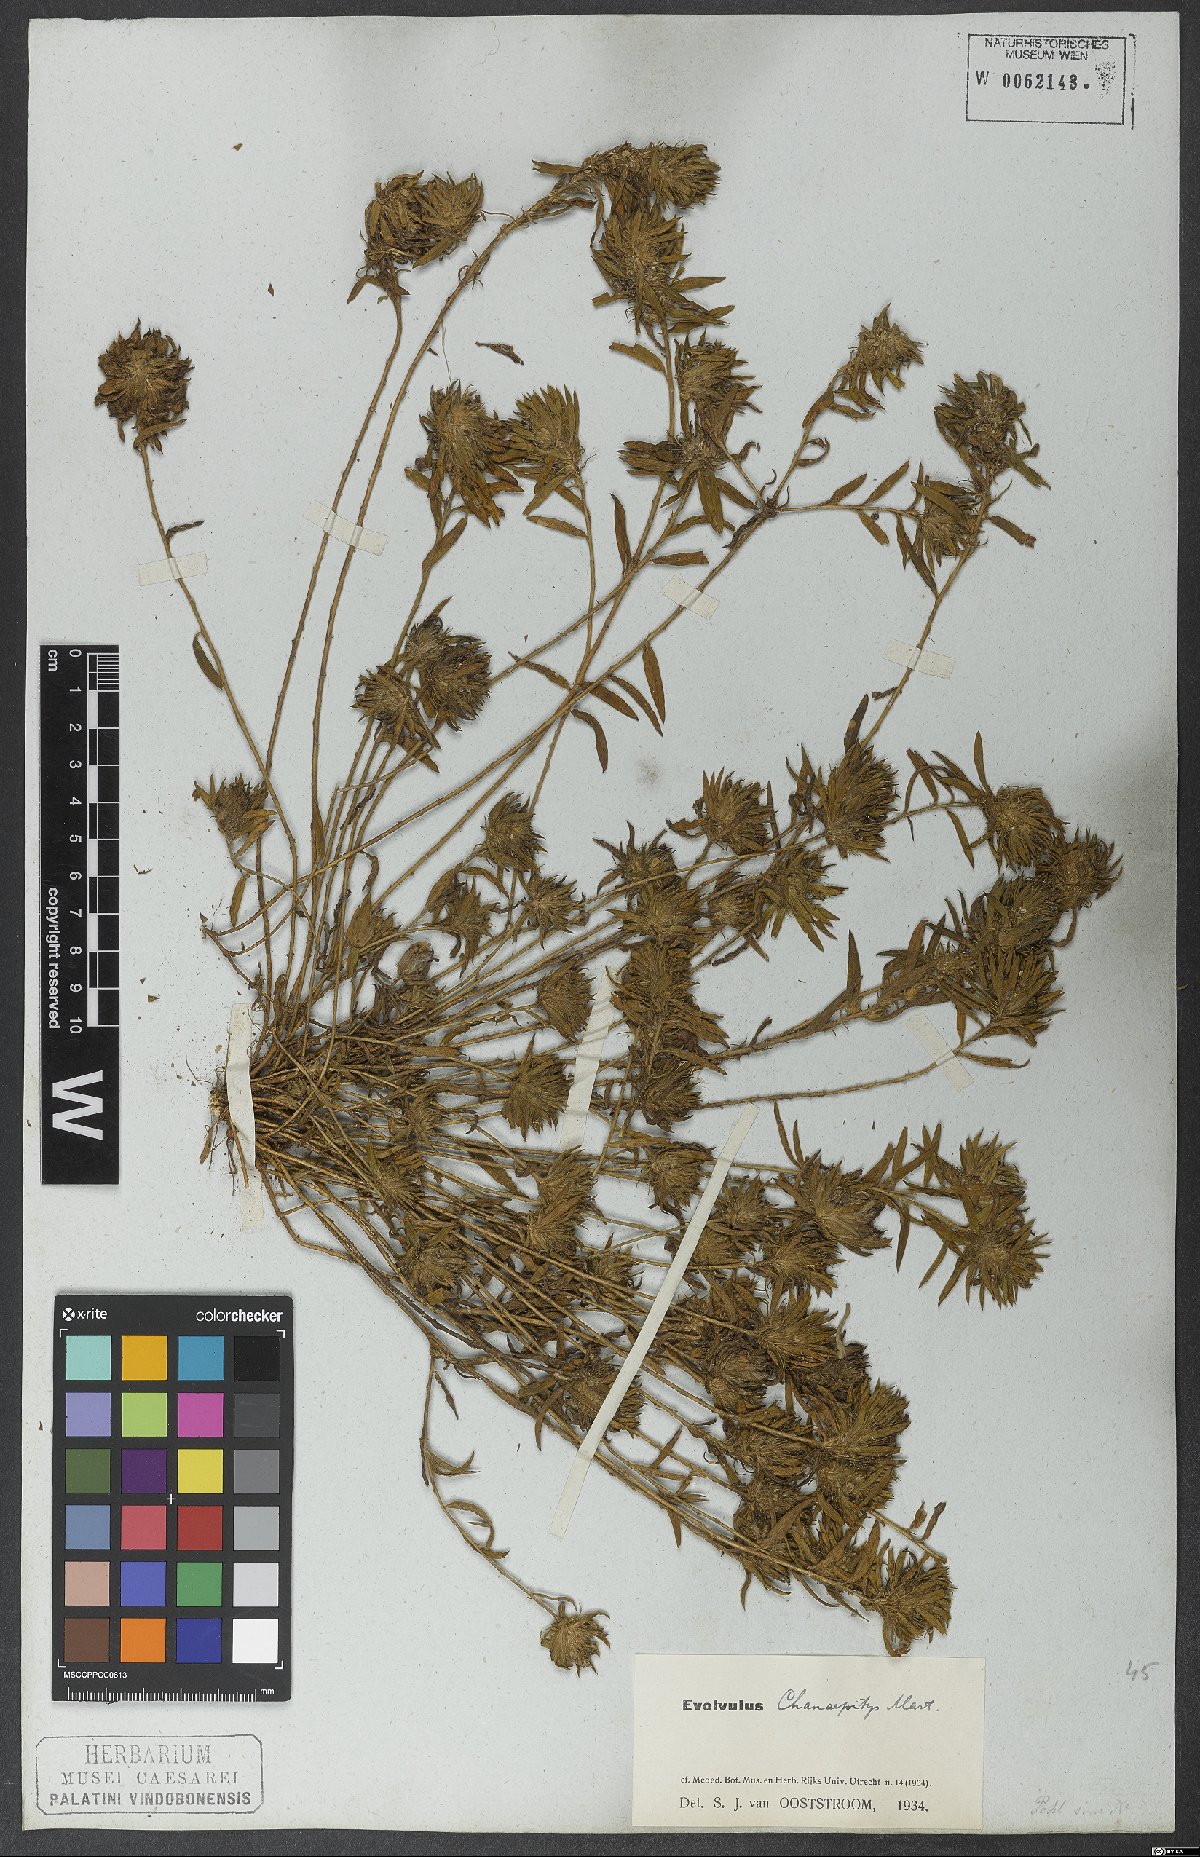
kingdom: Plantae
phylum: Tracheophyta
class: Magnoliopsida
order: Solanales
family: Convolvulaceae
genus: Evolvulus
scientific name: Evolvulus chamaepitys
